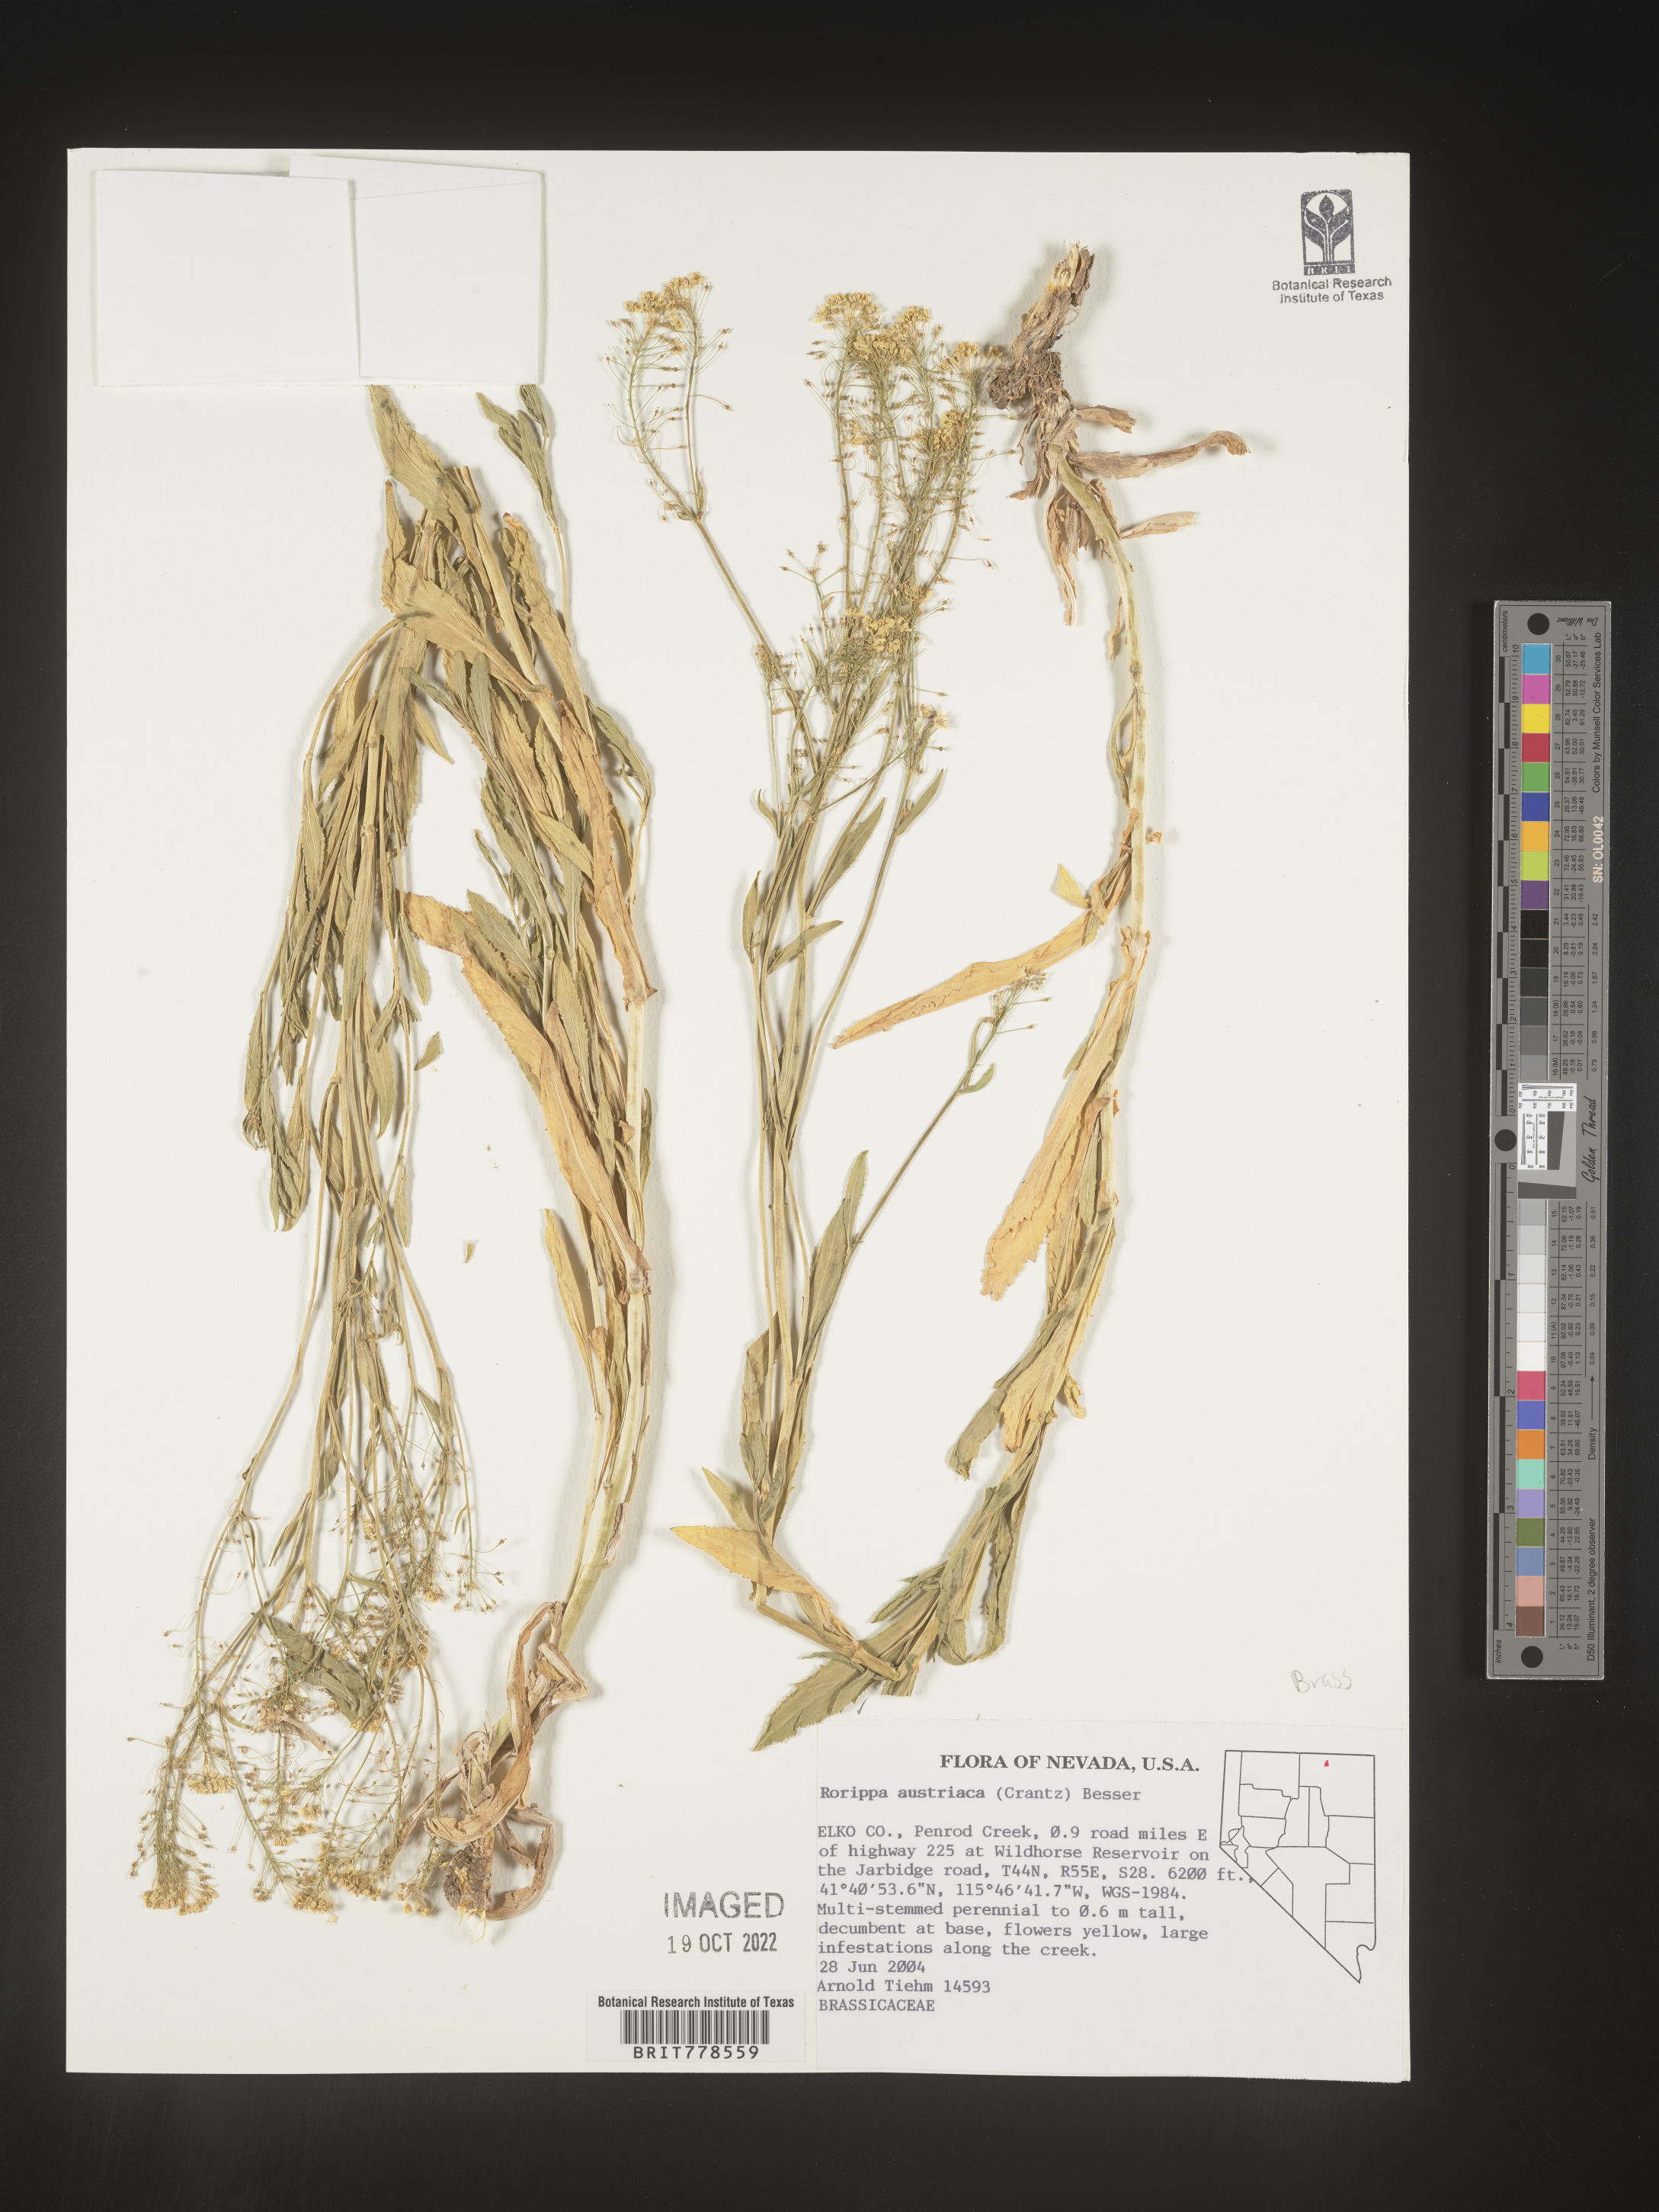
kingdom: Plantae
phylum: Tracheophyta
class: Magnoliopsida
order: Brassicales
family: Brassicaceae
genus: Rorippa
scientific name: Rorippa
